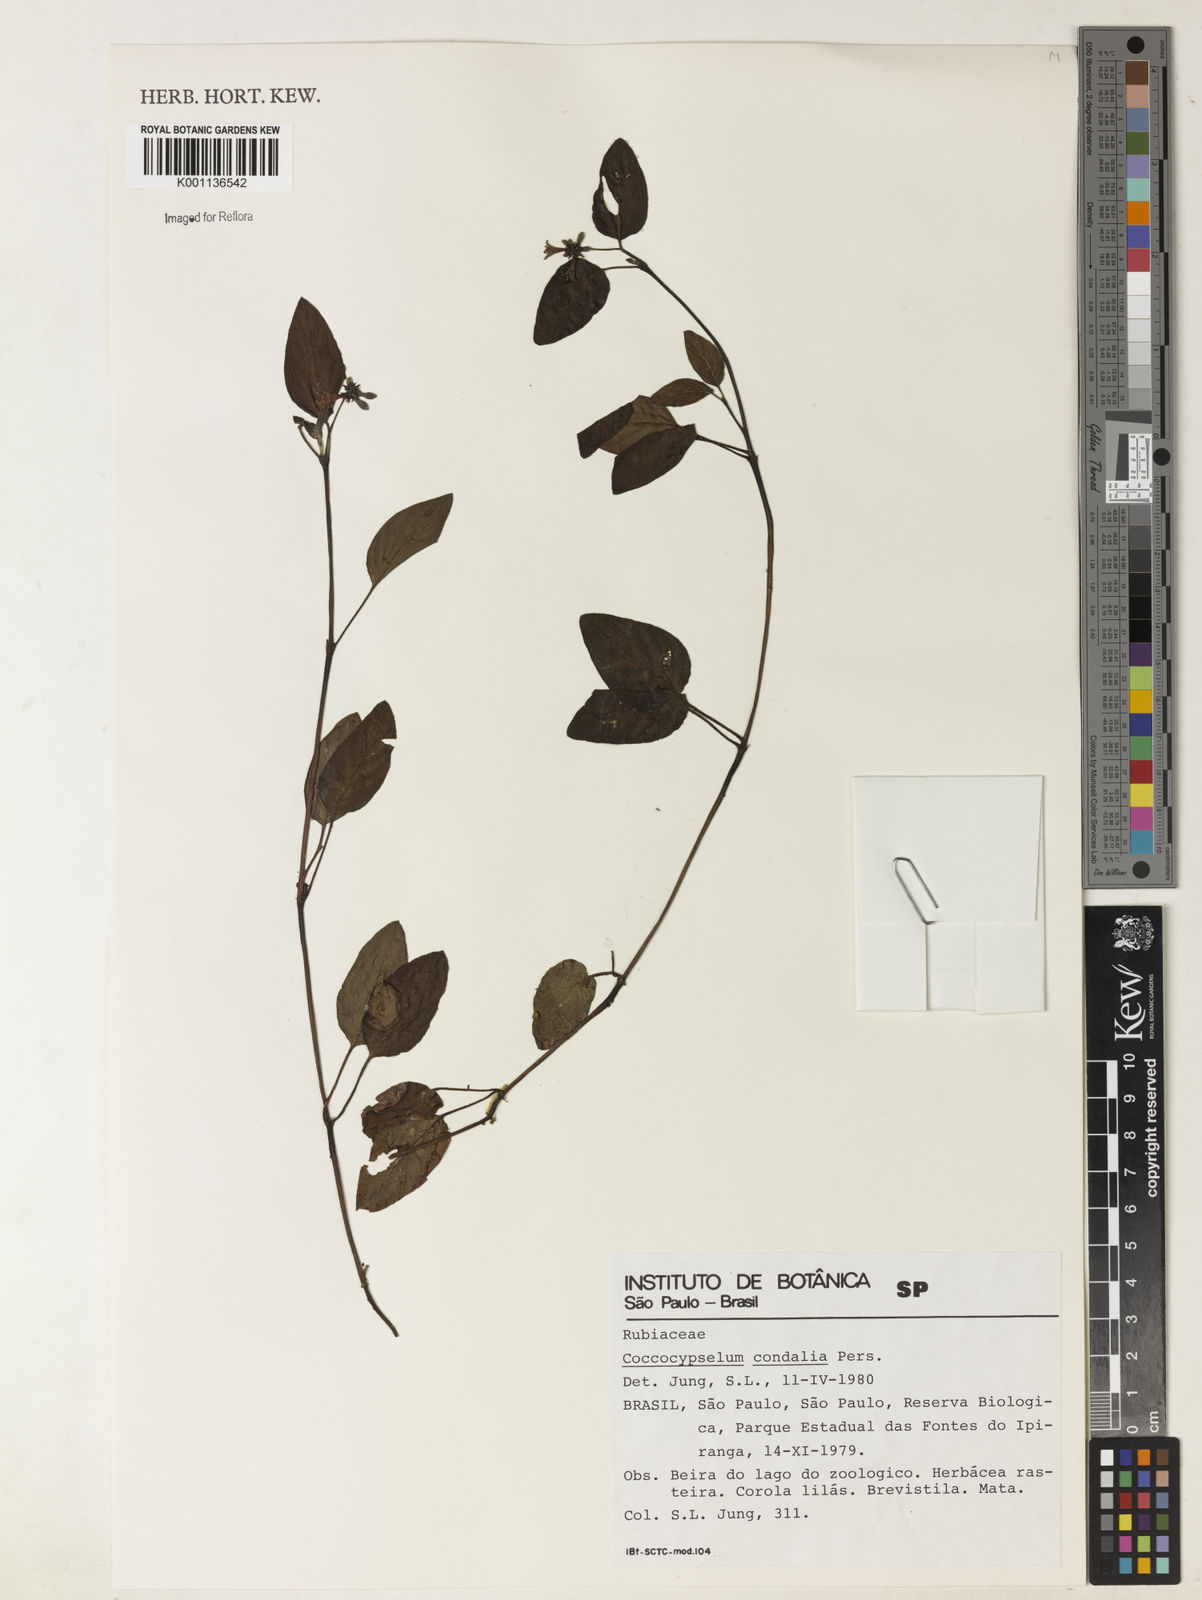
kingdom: Plantae
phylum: Tracheophyta
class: Magnoliopsida
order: Gentianales
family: Rubiaceae
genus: Coccocypselum
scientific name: Coccocypselum condalia
